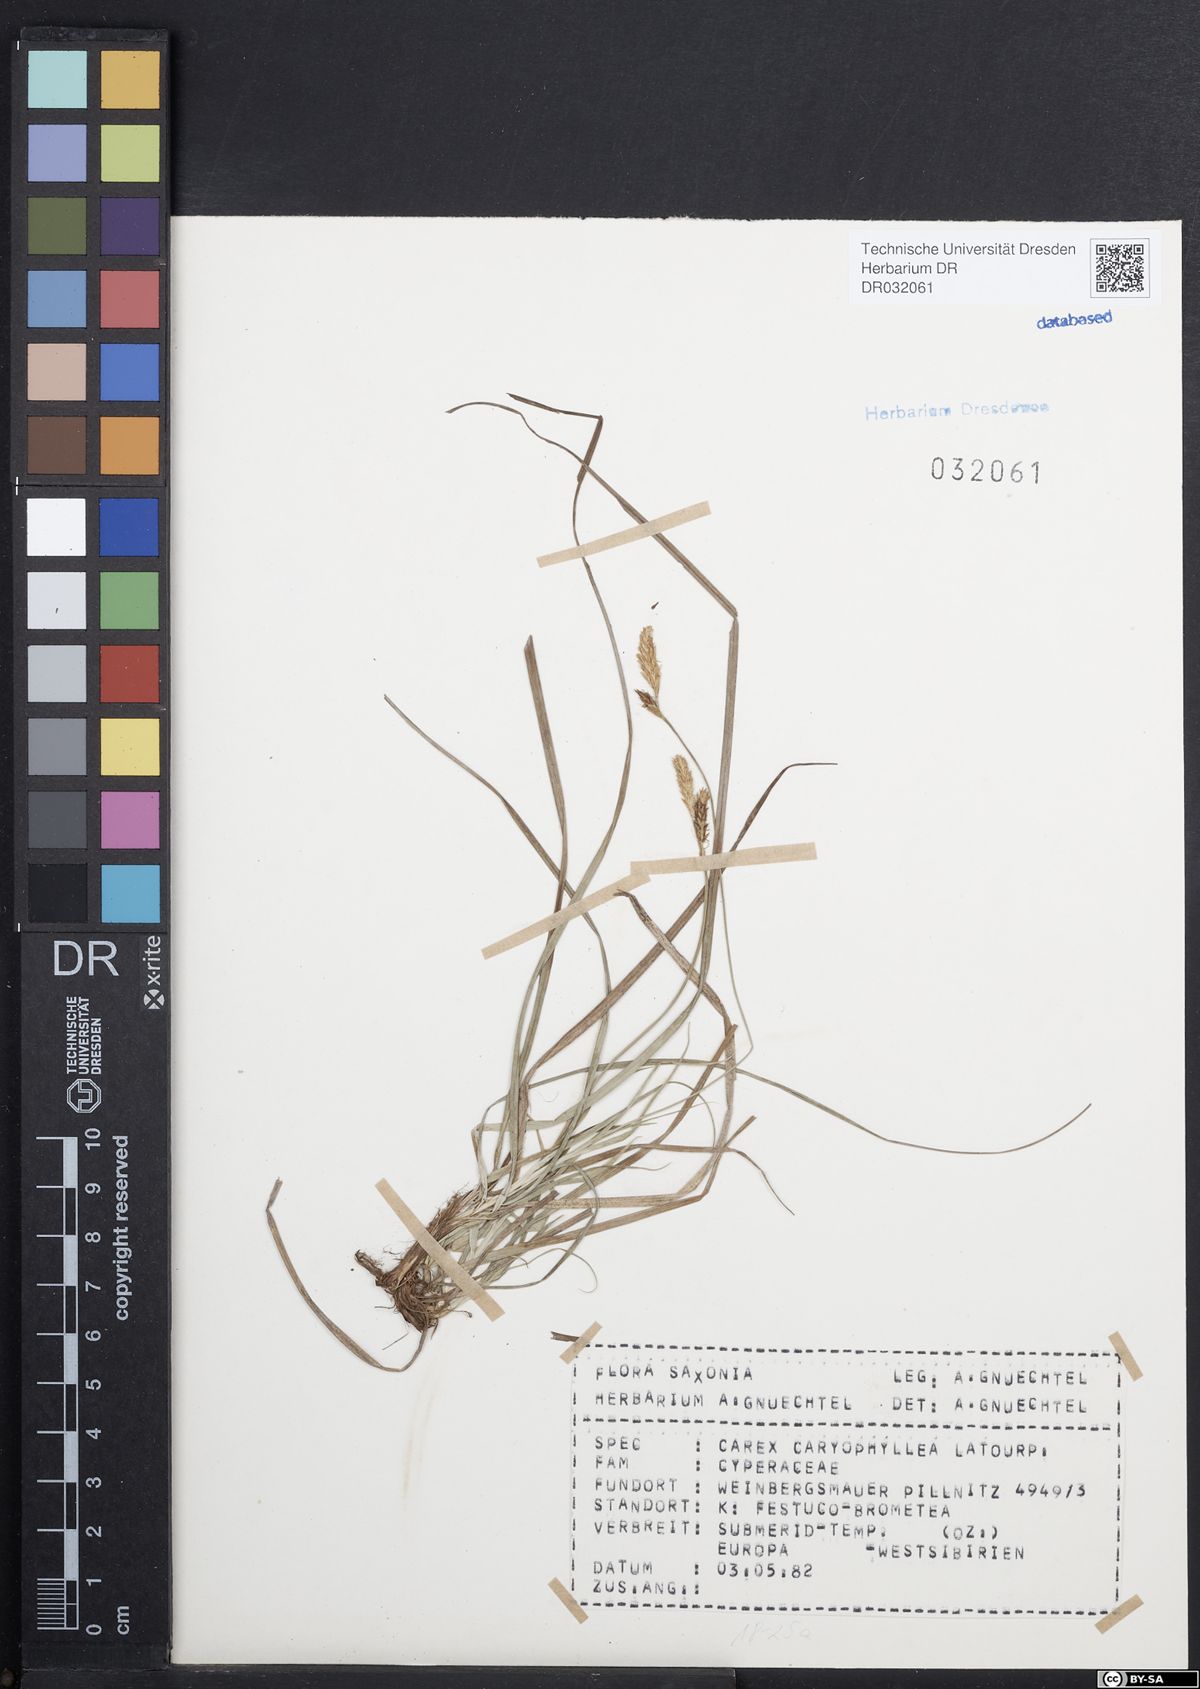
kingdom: Plantae
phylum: Tracheophyta
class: Liliopsida
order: Poales
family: Cyperaceae
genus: Carex
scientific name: Carex caryophyllea
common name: Spring sedge
